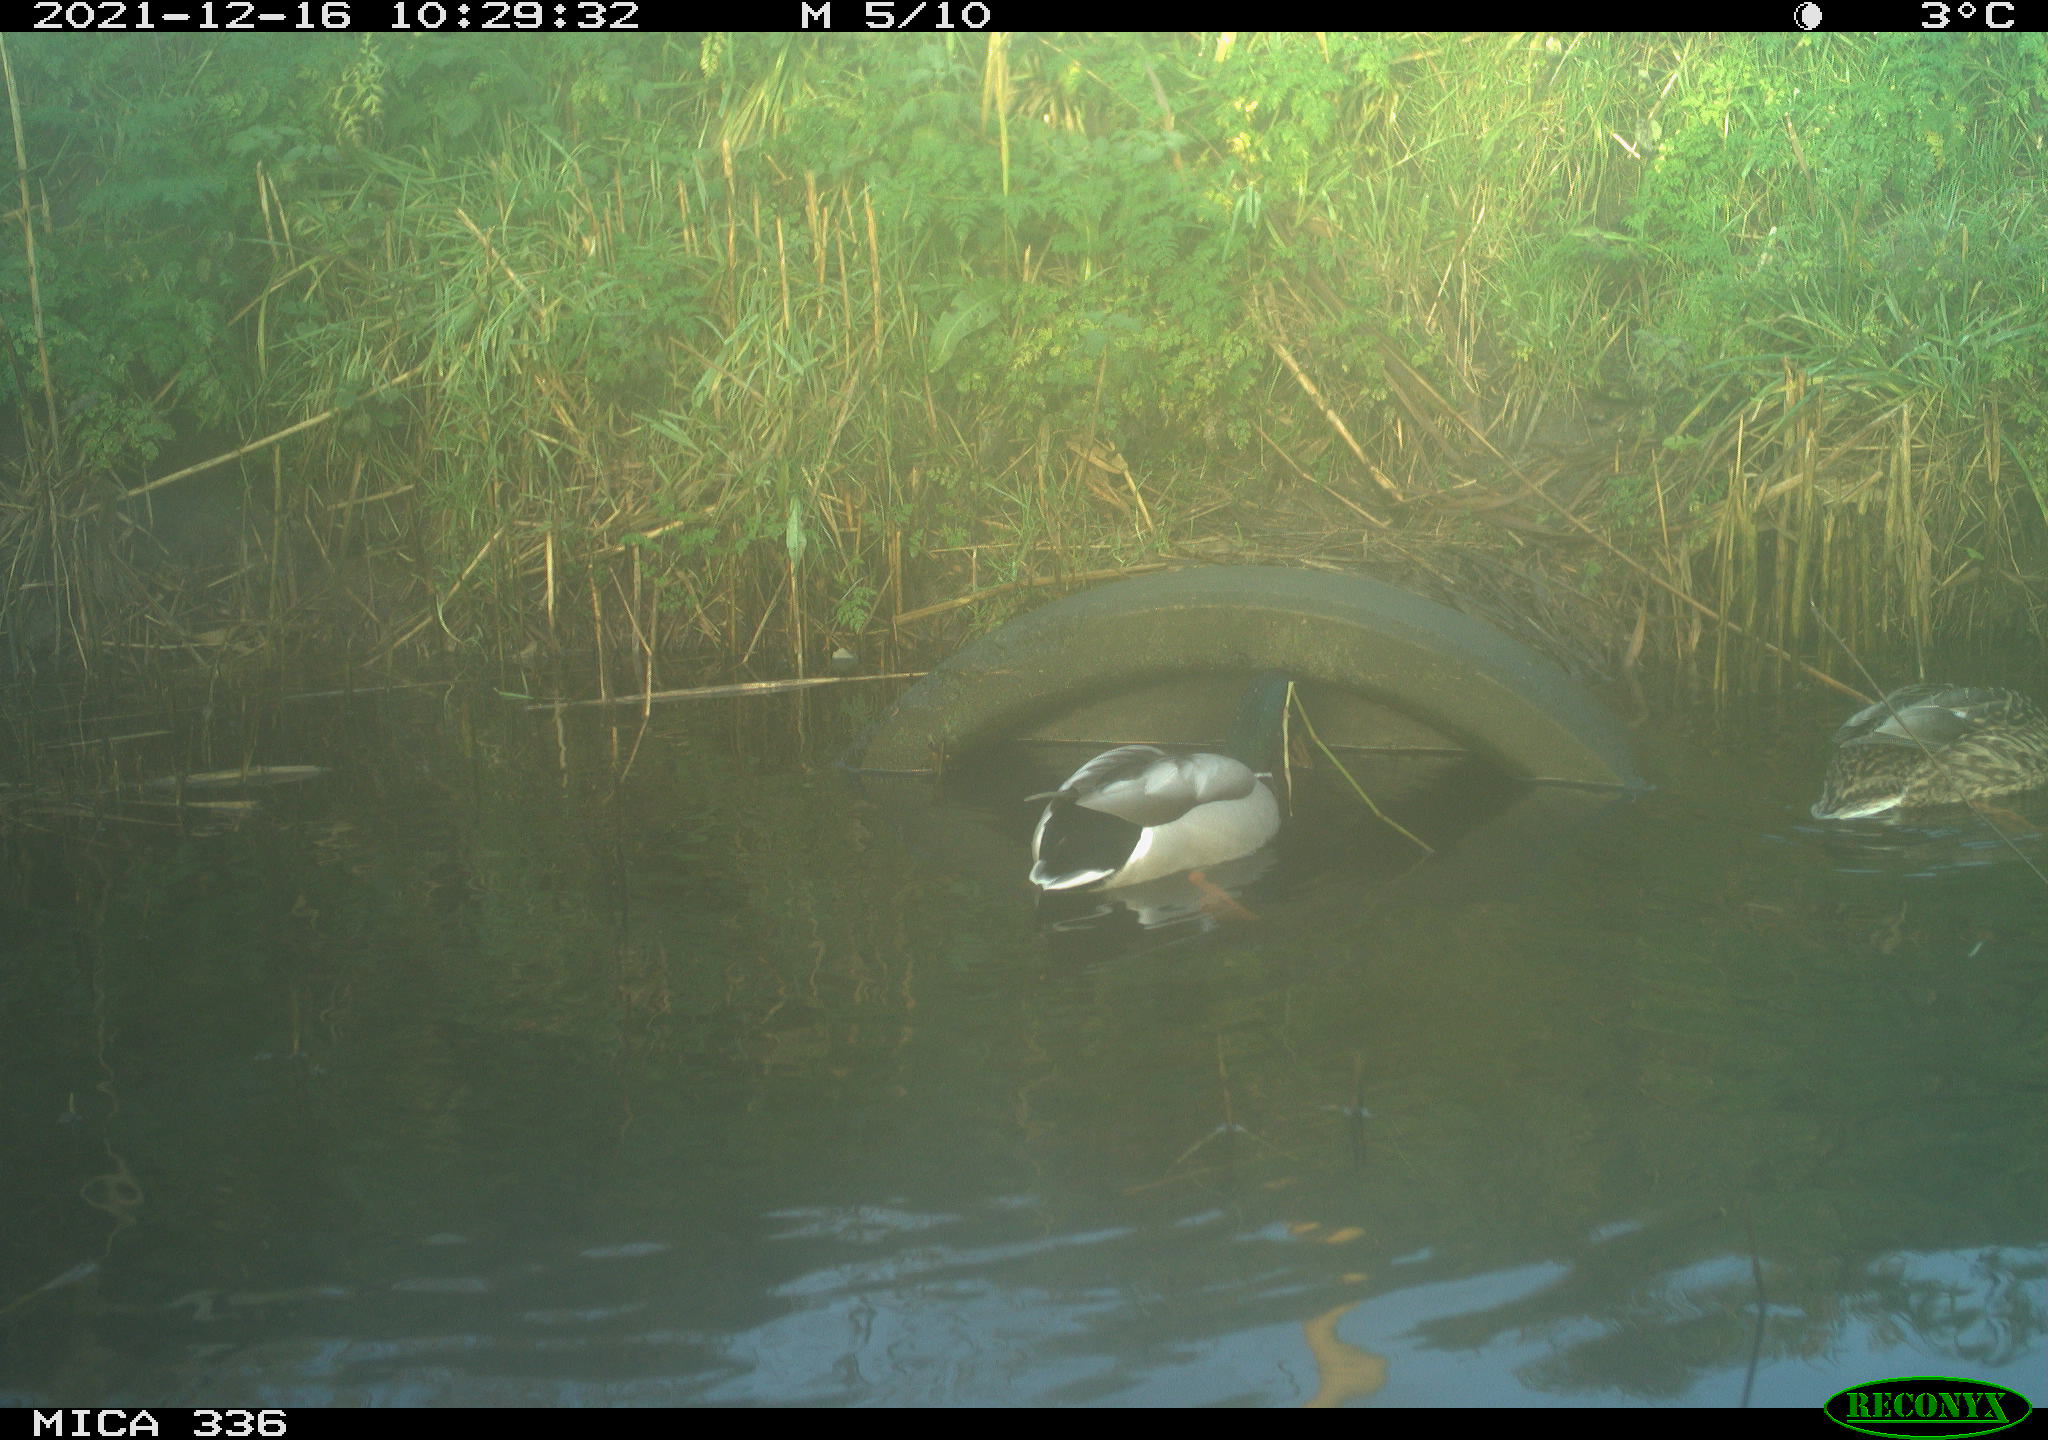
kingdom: Animalia
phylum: Chordata
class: Aves
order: Anseriformes
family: Anatidae
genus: Anas
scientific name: Anas platyrhynchos
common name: Mallard
